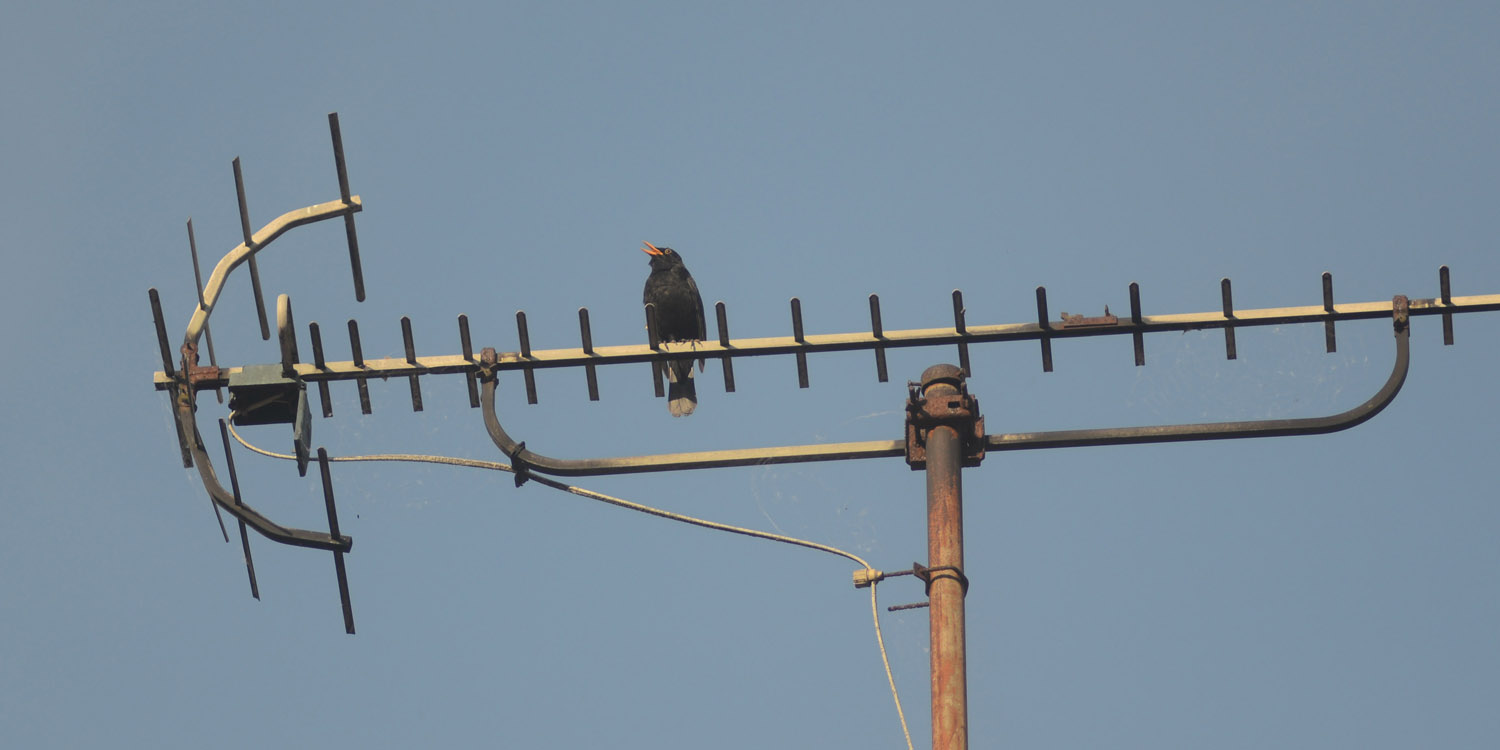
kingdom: Animalia
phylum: Chordata
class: Aves
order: Passeriformes
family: Turdidae
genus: Turdus
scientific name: Turdus merula
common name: Common blackbird
